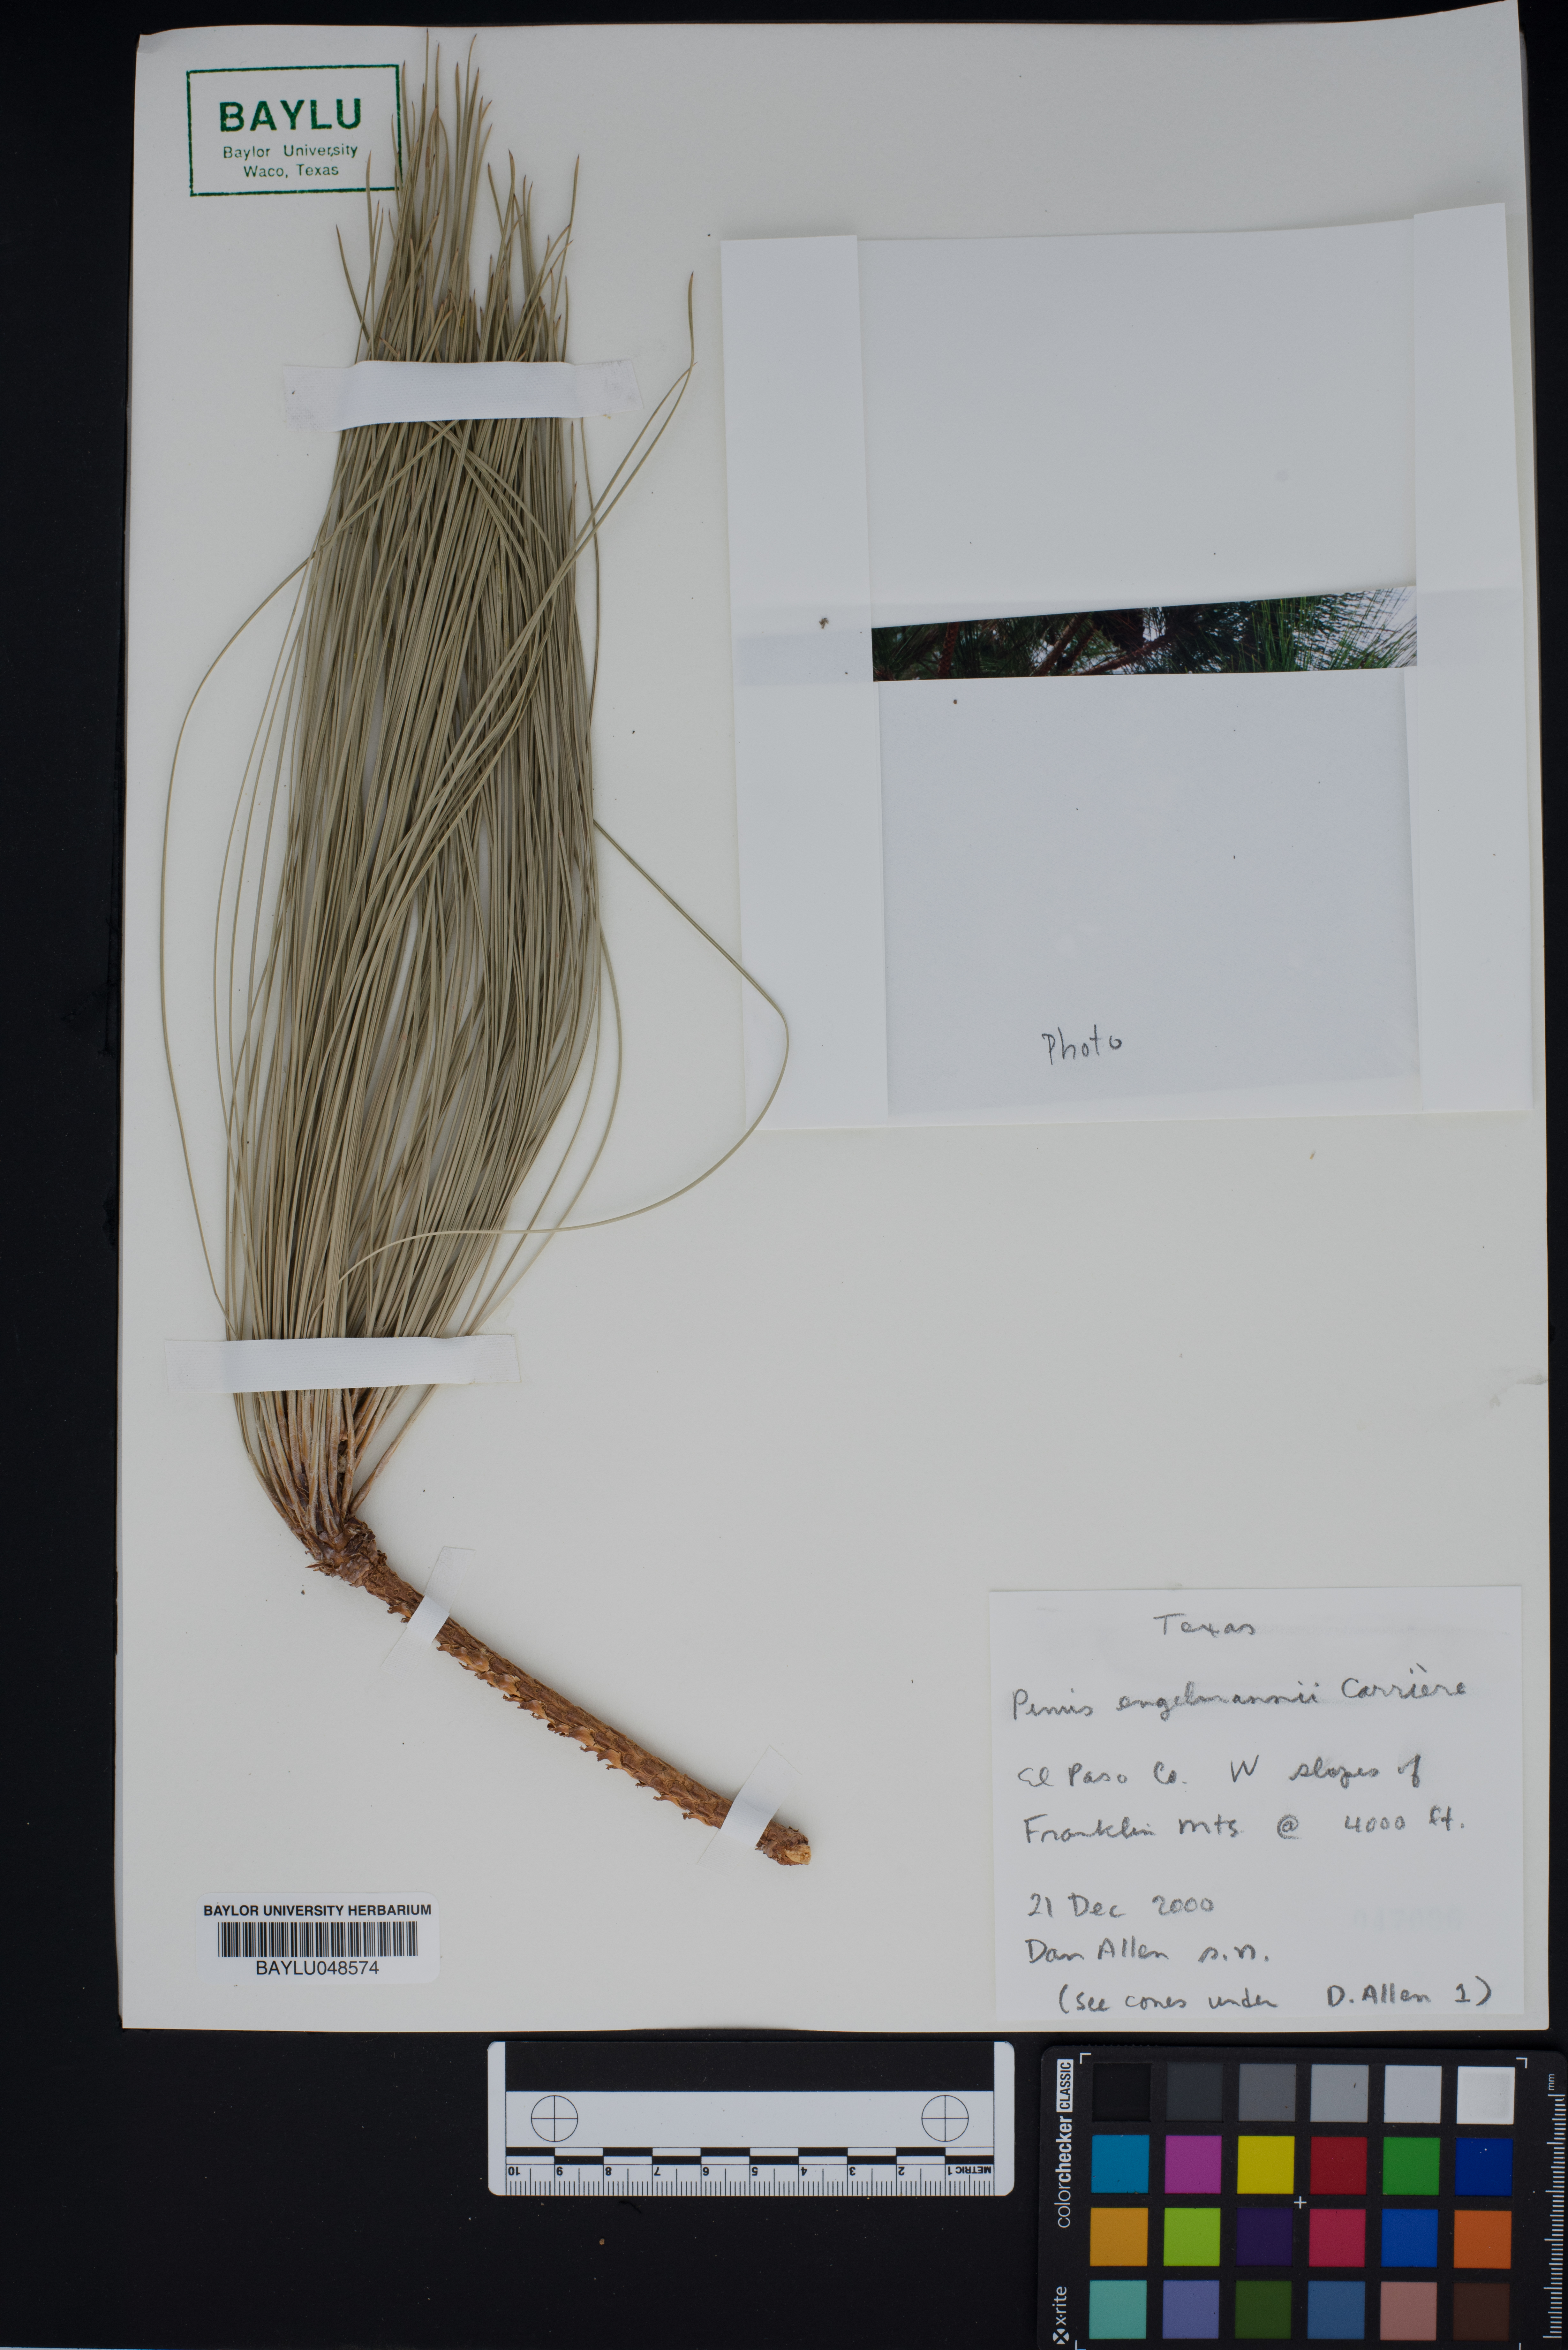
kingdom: Plantae
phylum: Tracheophyta
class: Pinopsida
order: Pinales
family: Pinaceae
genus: Pinus
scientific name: Pinus engelmannii
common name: Apache pine
